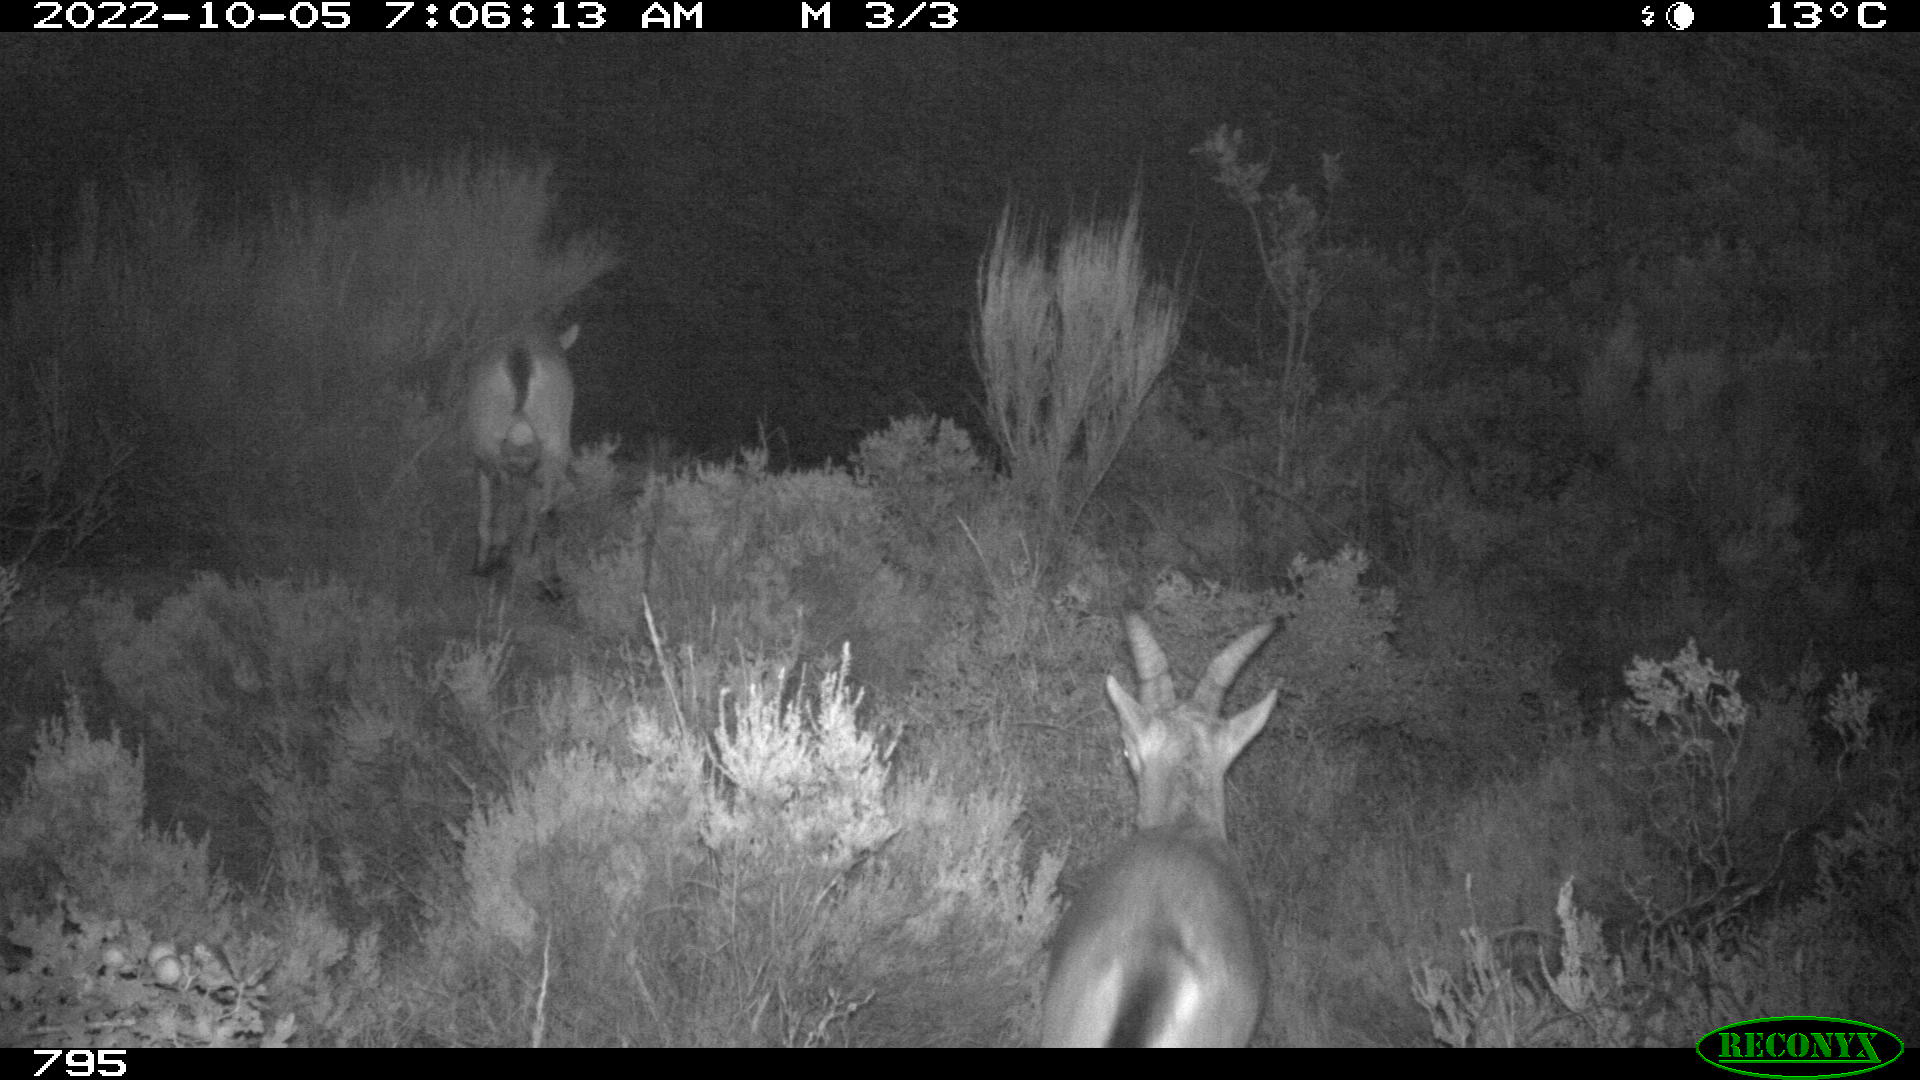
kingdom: Animalia
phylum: Chordata
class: Mammalia
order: Artiodactyla
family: Bovidae
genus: Capra
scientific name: Capra pyrenaica
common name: Spanish ibex
